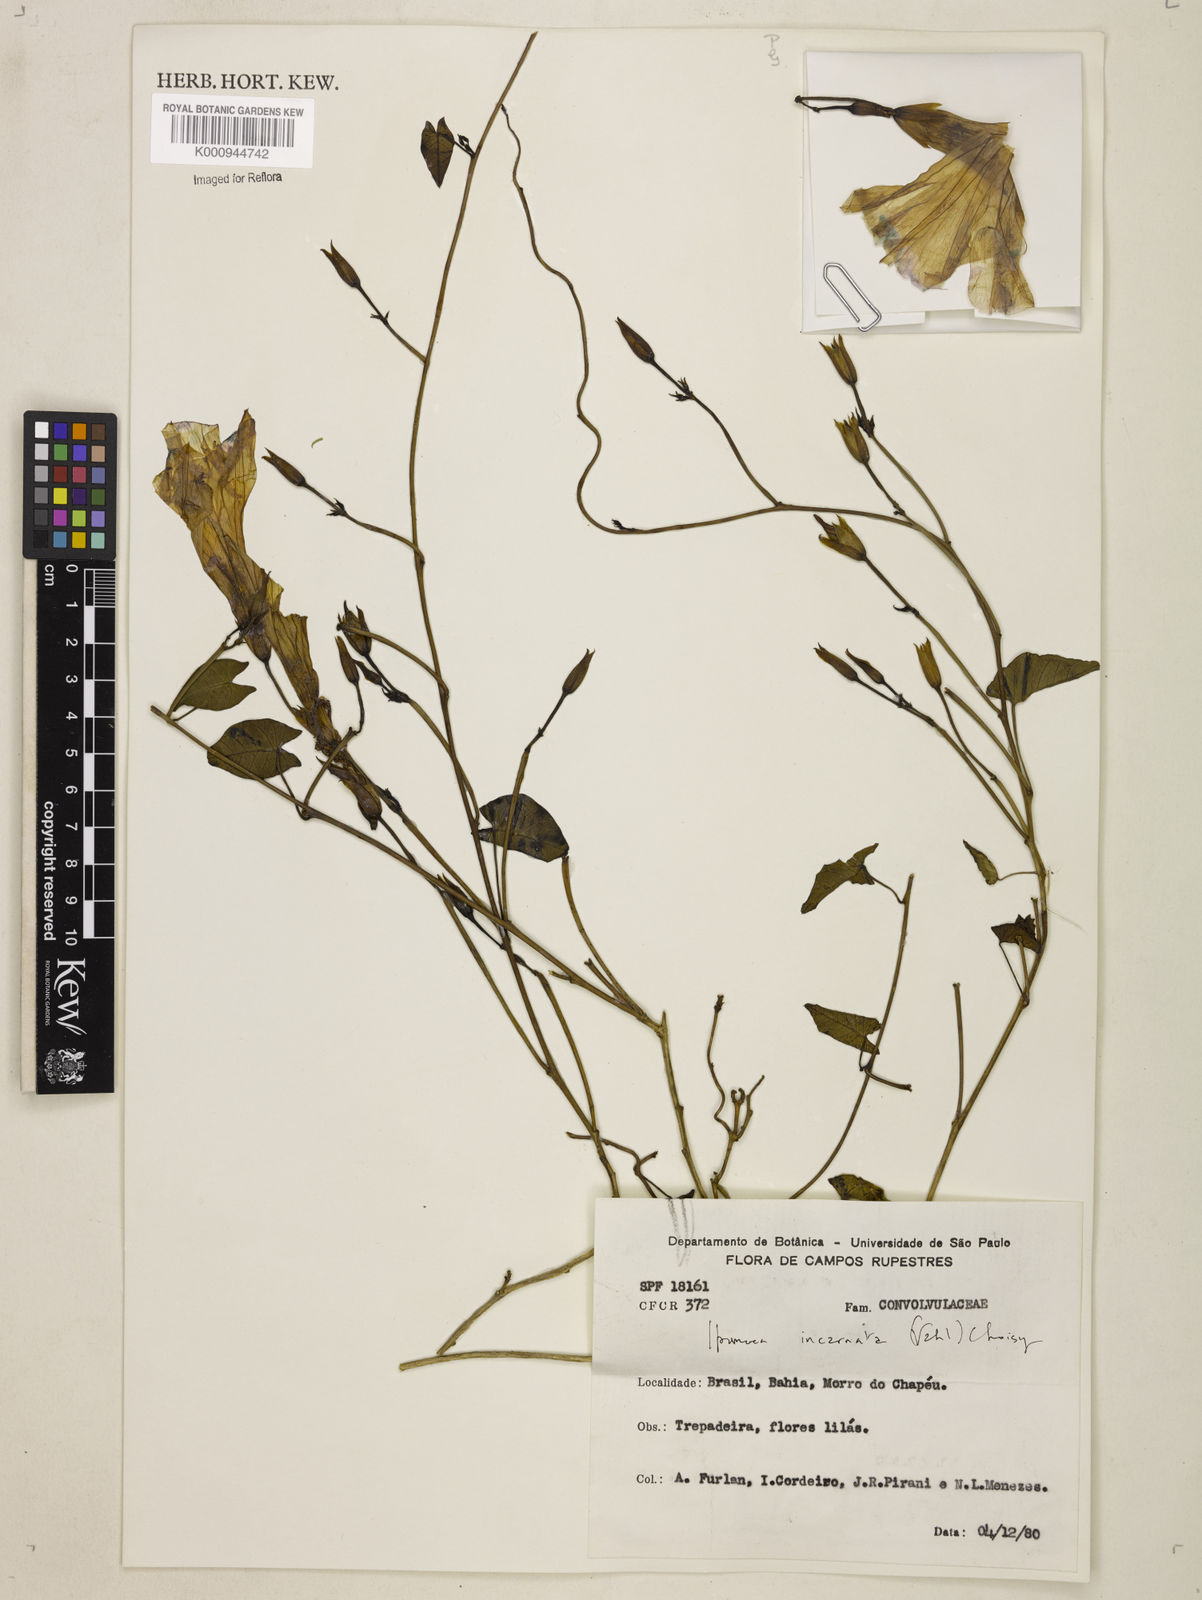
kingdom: Plantae
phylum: Tracheophyta
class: Magnoliopsida
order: Solanales
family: Convolvulaceae
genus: Ipomoea
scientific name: Ipomoea incarnata
